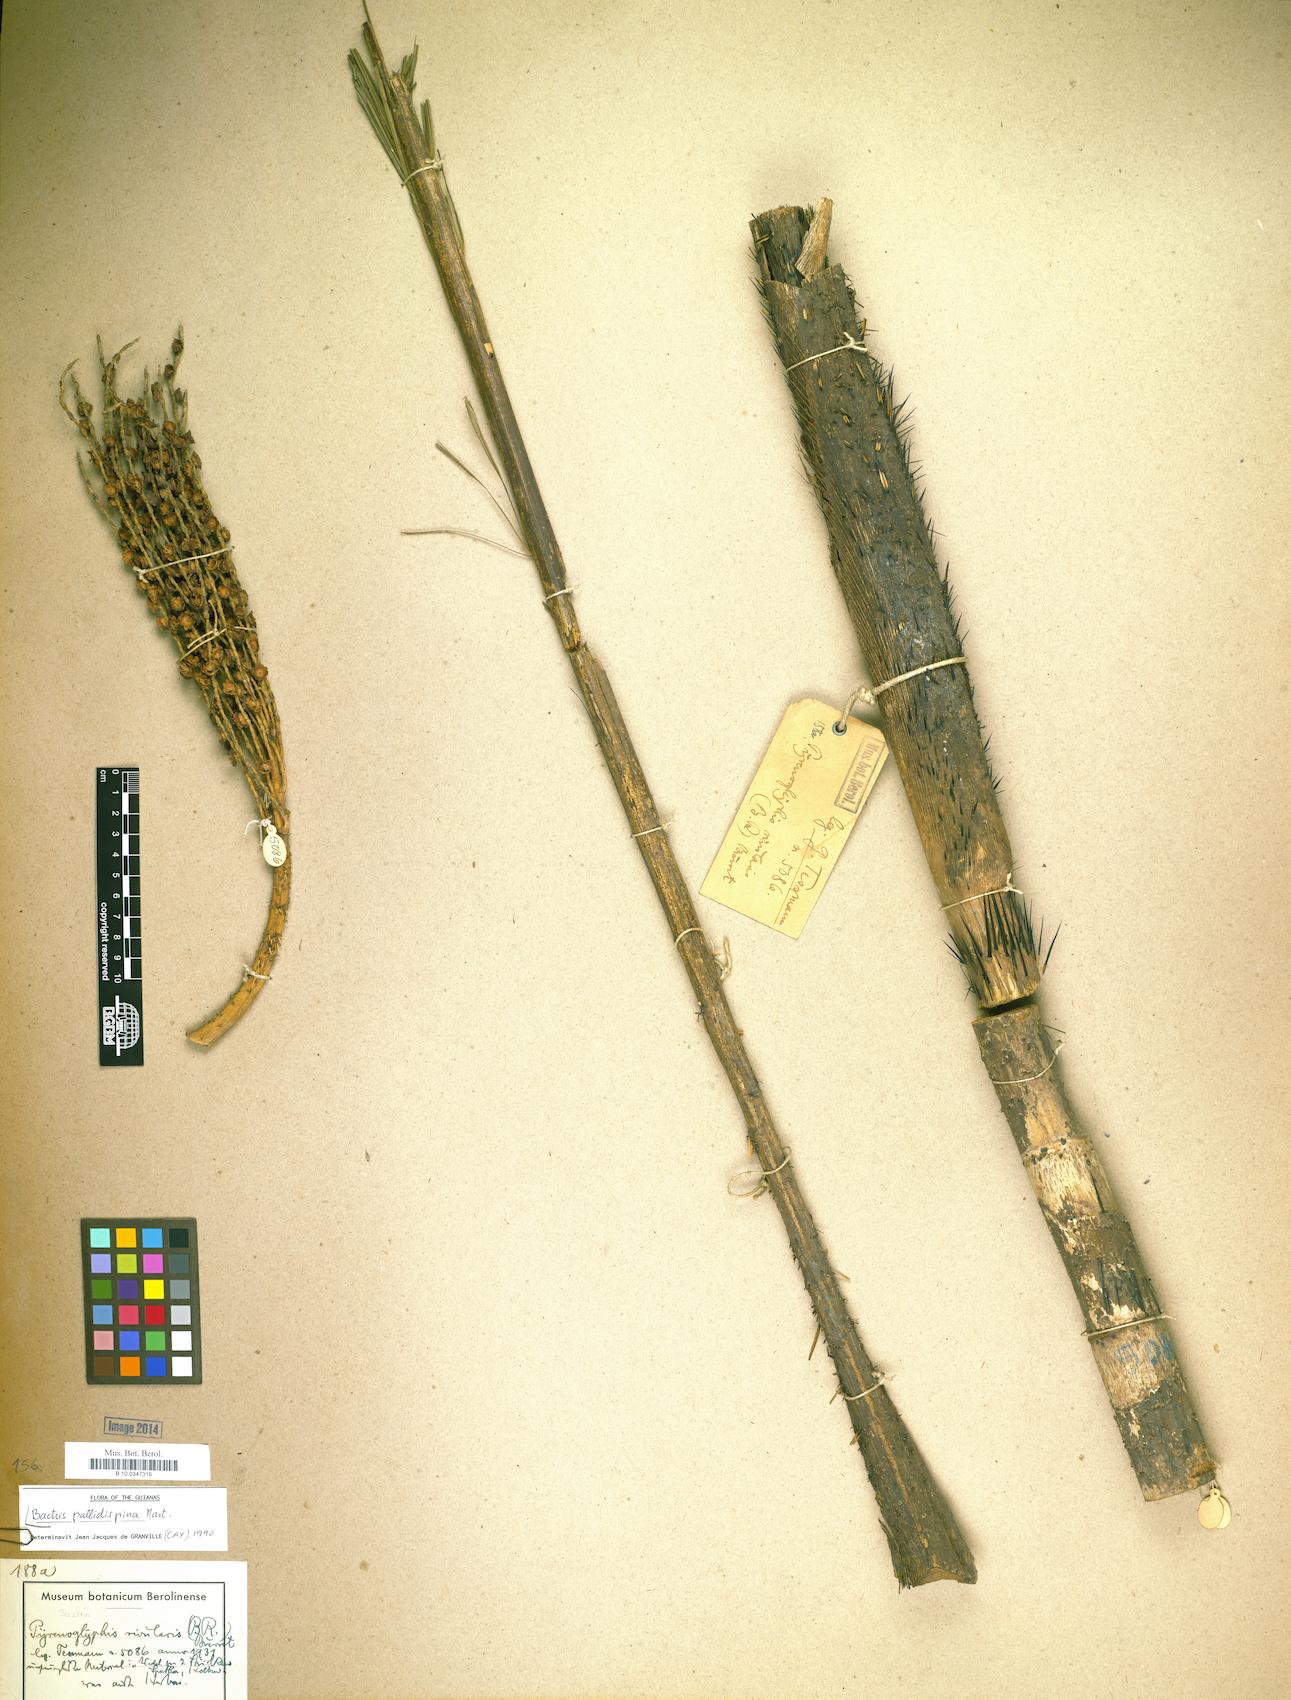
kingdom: Plantae
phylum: Tracheophyta
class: Liliopsida
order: Arecales
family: Arecaceae
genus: Bactris
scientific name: Bactris brongniartii
